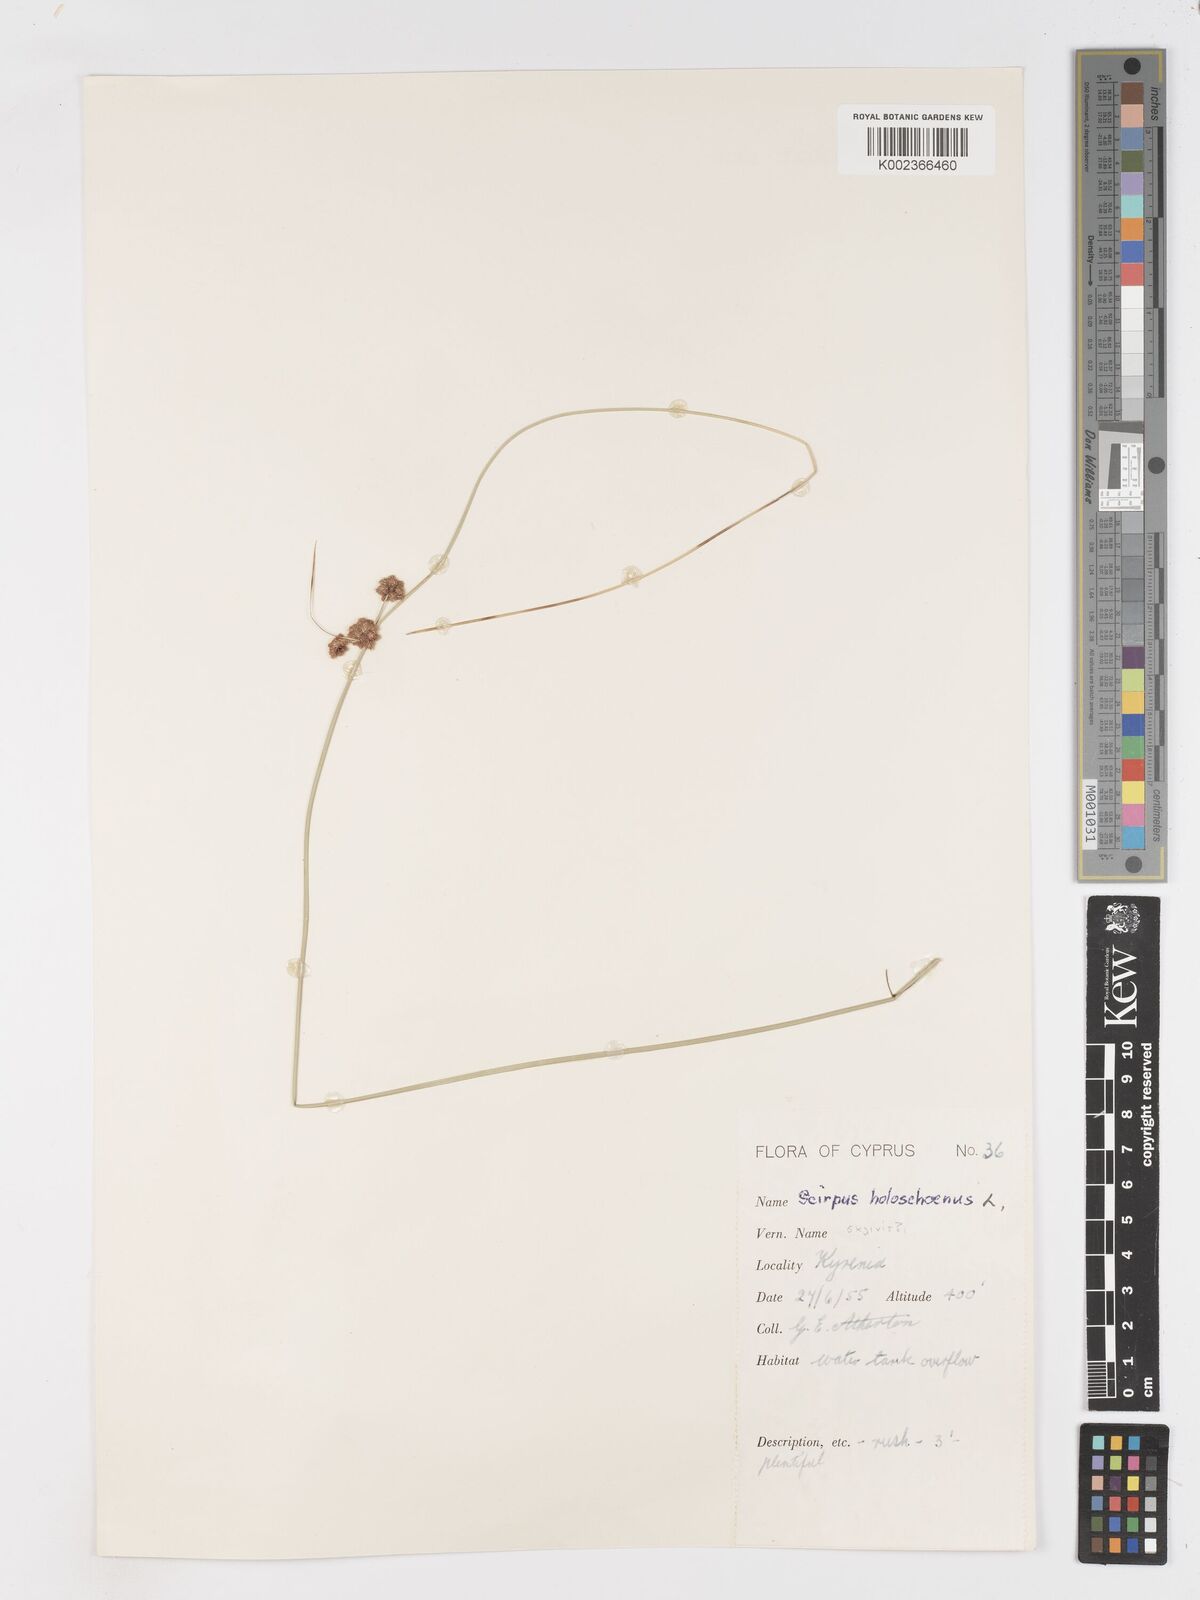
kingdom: Plantae
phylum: Tracheophyta
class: Liliopsida
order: Poales
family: Cyperaceae
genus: Scirpoides
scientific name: Scirpoides holoschoenus
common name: Round-headed club-rush
